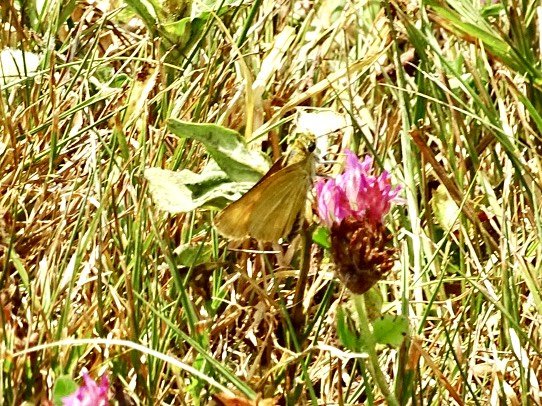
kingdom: Animalia
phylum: Arthropoda
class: Insecta
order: Lepidoptera
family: Hesperiidae
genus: Atrytone
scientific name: Atrytone delaware
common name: Delaware Skipper
